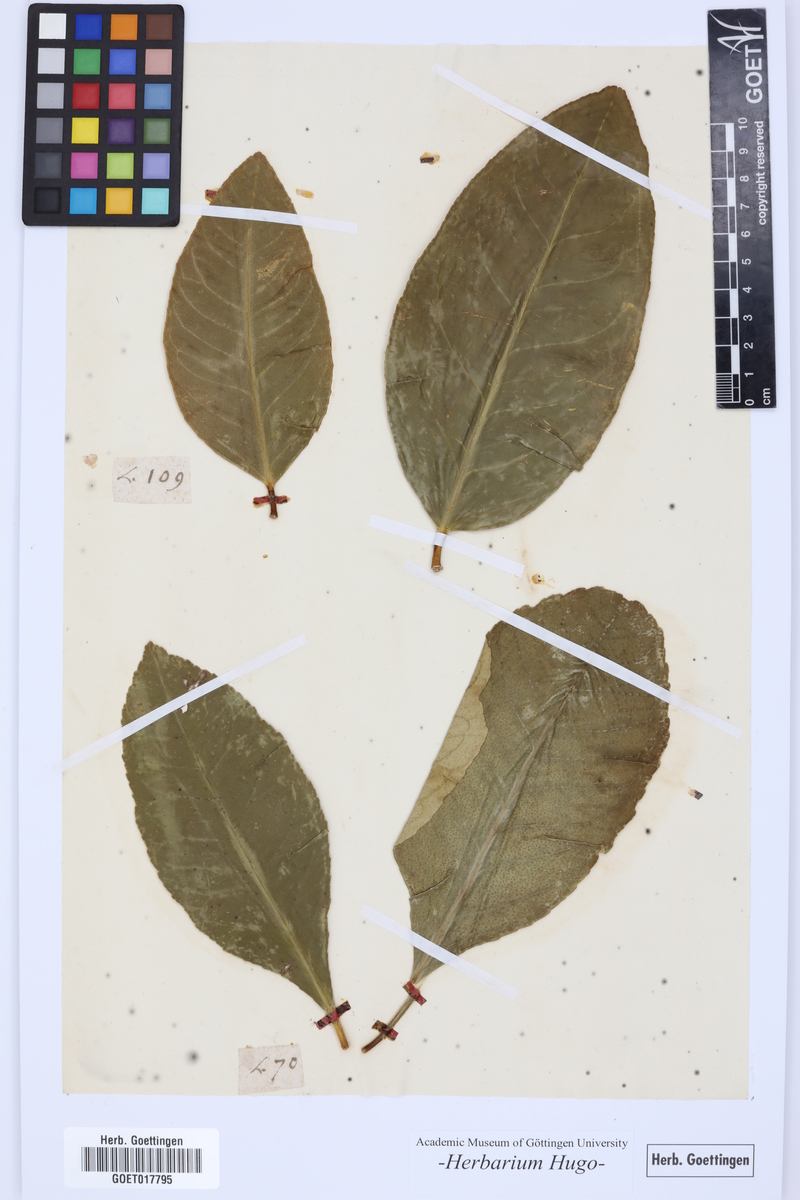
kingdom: Plantae
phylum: Tracheophyta
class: Magnoliopsida
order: Sapindales
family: Rutaceae
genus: Citrus
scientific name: Citrus
